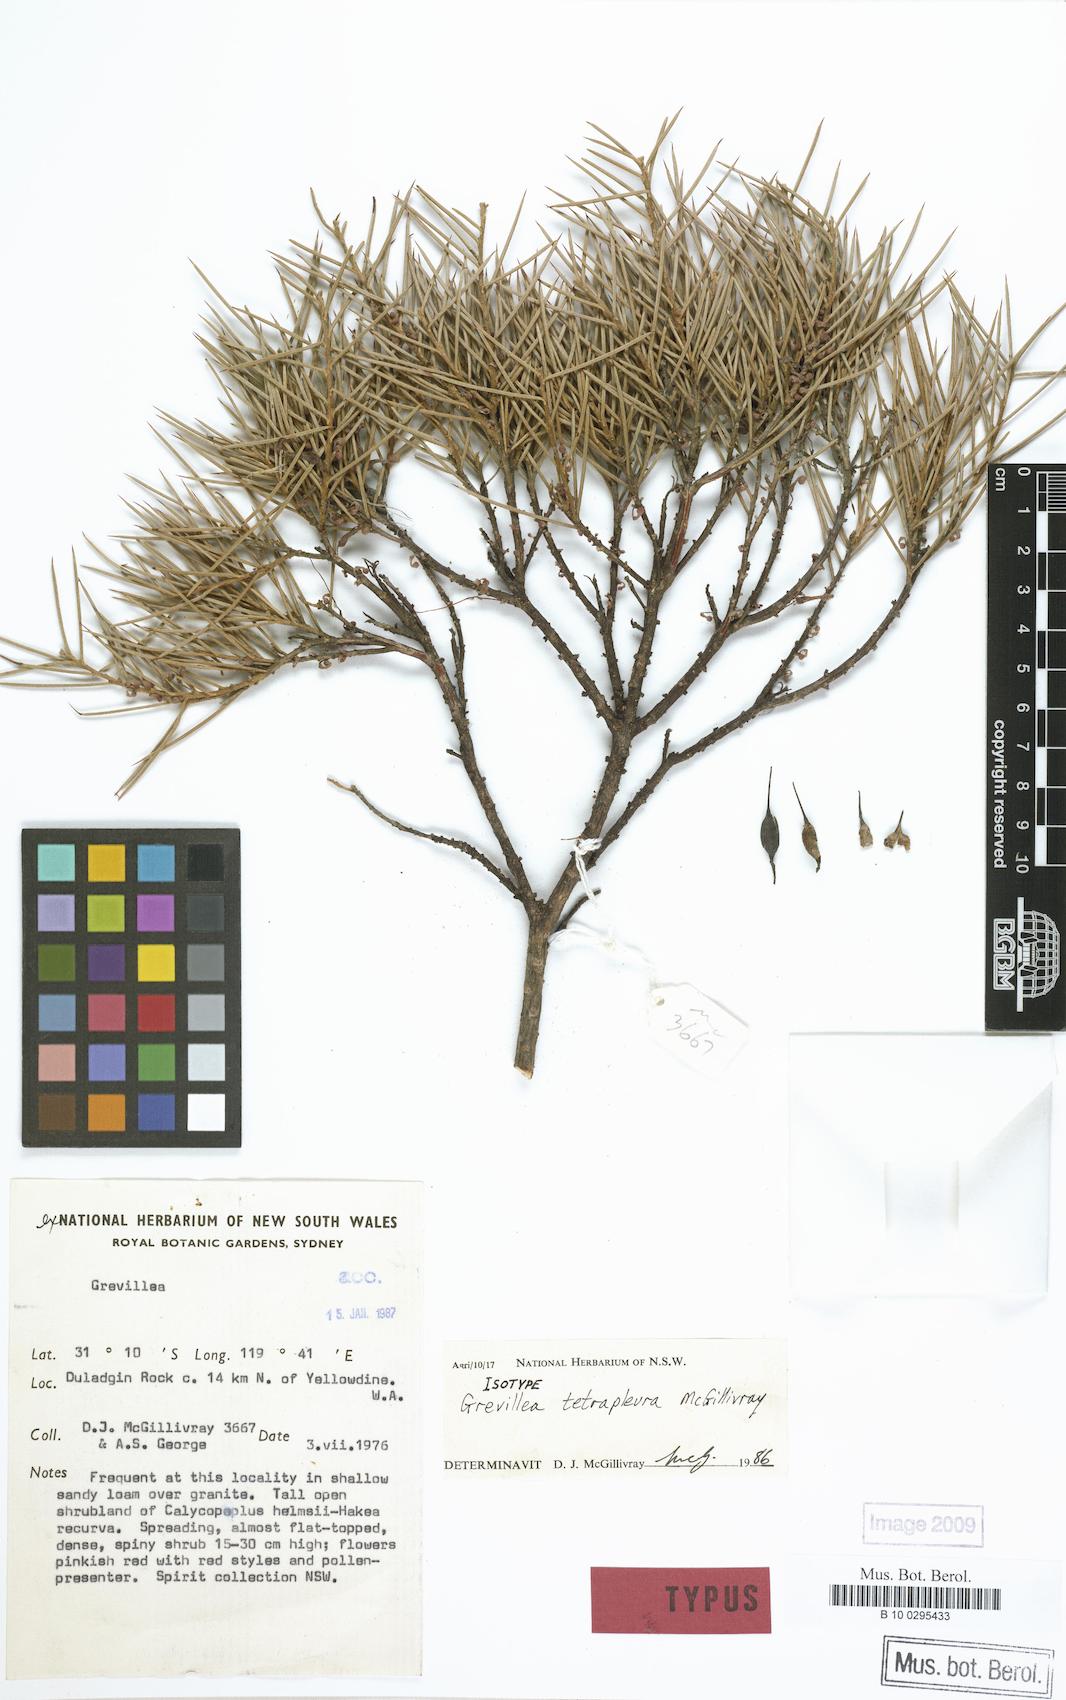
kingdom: Plantae
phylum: Tracheophyta
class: Magnoliopsida
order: Proteales
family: Proteaceae
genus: Grevillea
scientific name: Grevillea tetrapleura
